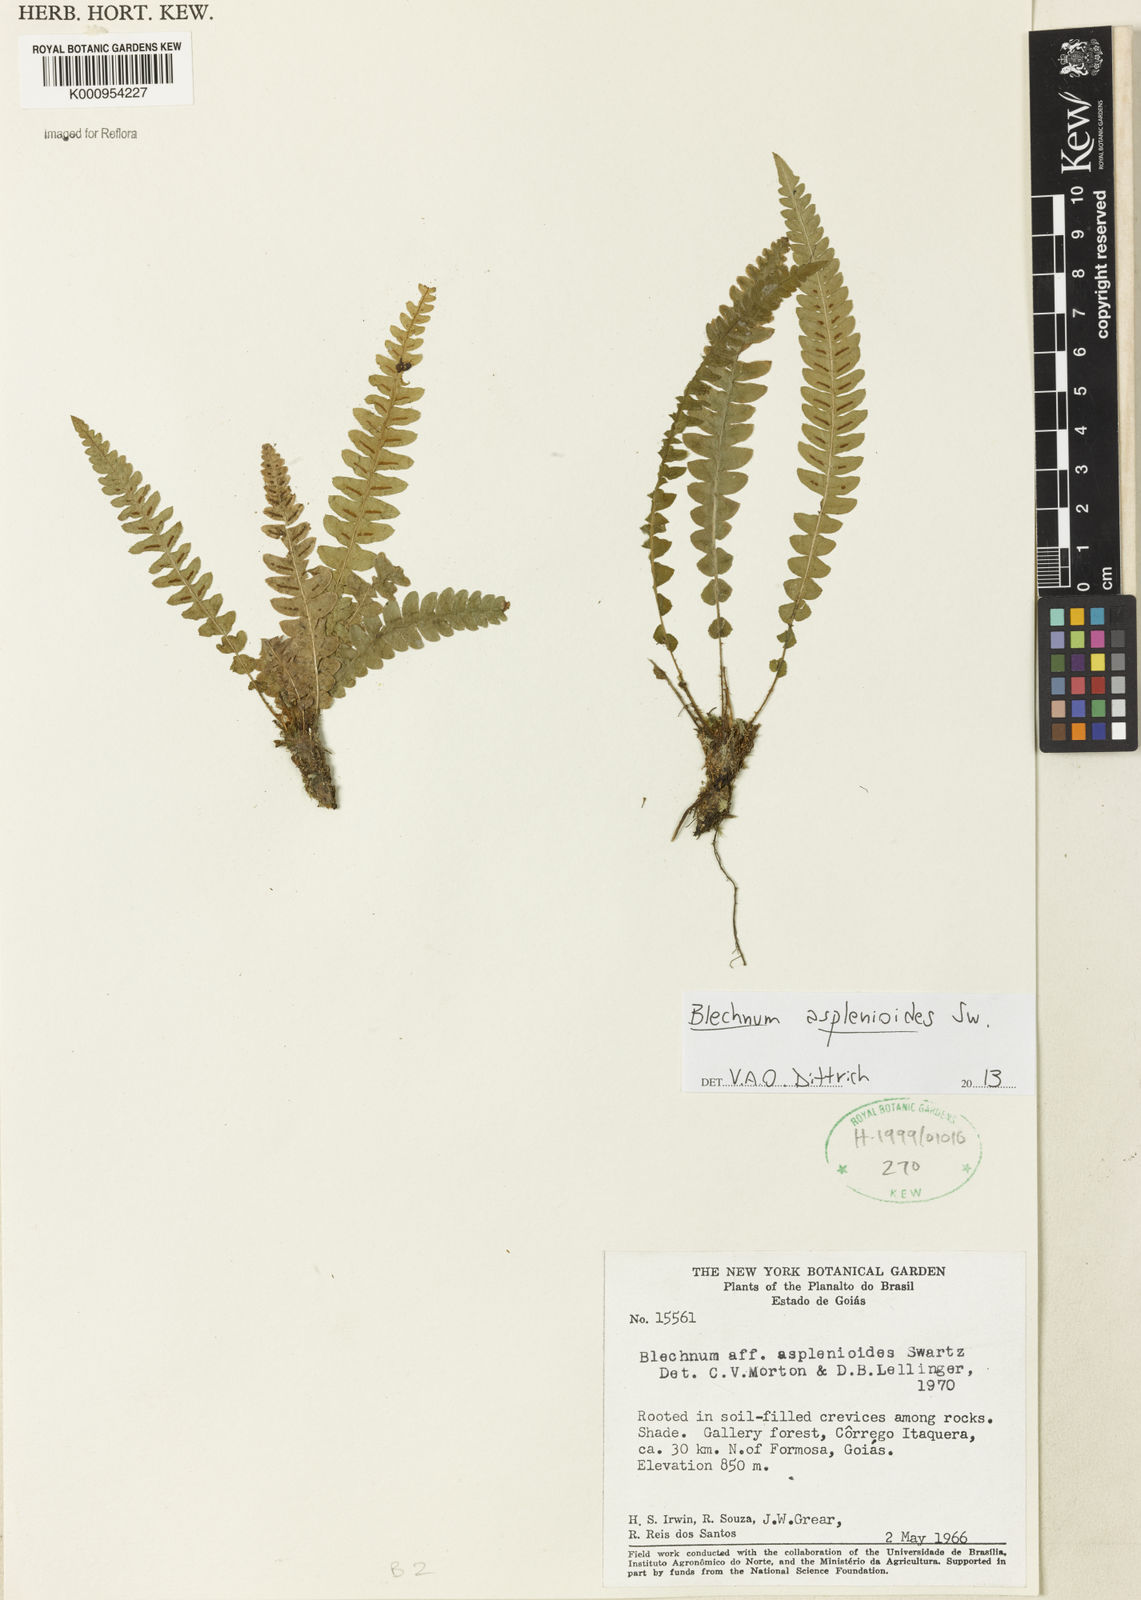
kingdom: Plantae
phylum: Tracheophyta
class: Polypodiopsida
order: Polypodiales
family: Blechnaceae
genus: Blechnum
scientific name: Blechnum asplenioides
